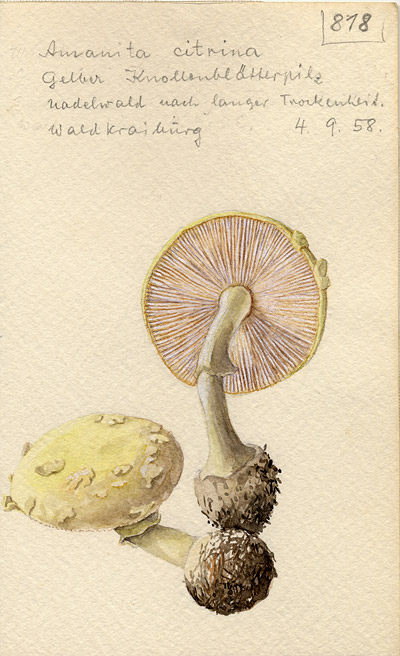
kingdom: Fungi
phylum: Basidiomycota
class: Agaricomycetes
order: Agaricales
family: Amanitaceae
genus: Amanita
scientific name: Amanita citrina
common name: False death-cap
